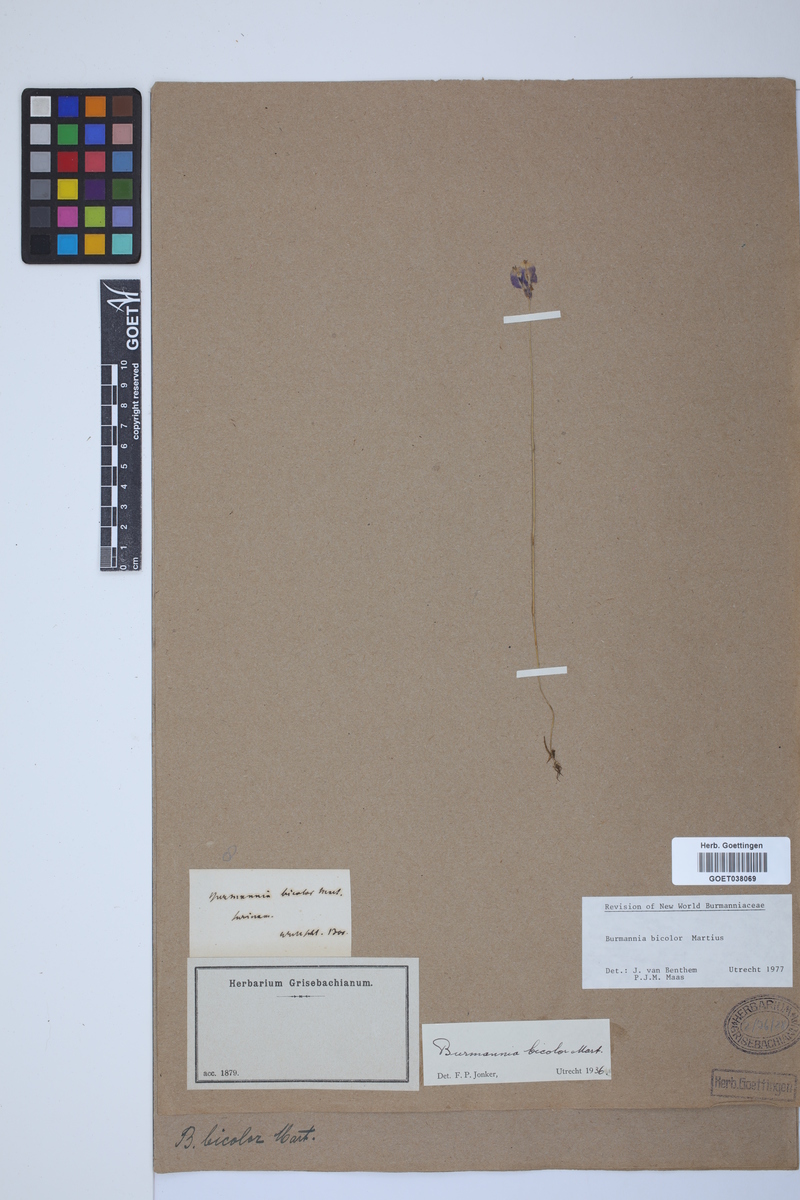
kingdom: Plantae
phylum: Tracheophyta
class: Liliopsida
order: Dioscoreales
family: Burmanniaceae
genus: Burmannia
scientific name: Burmannia bicolor
